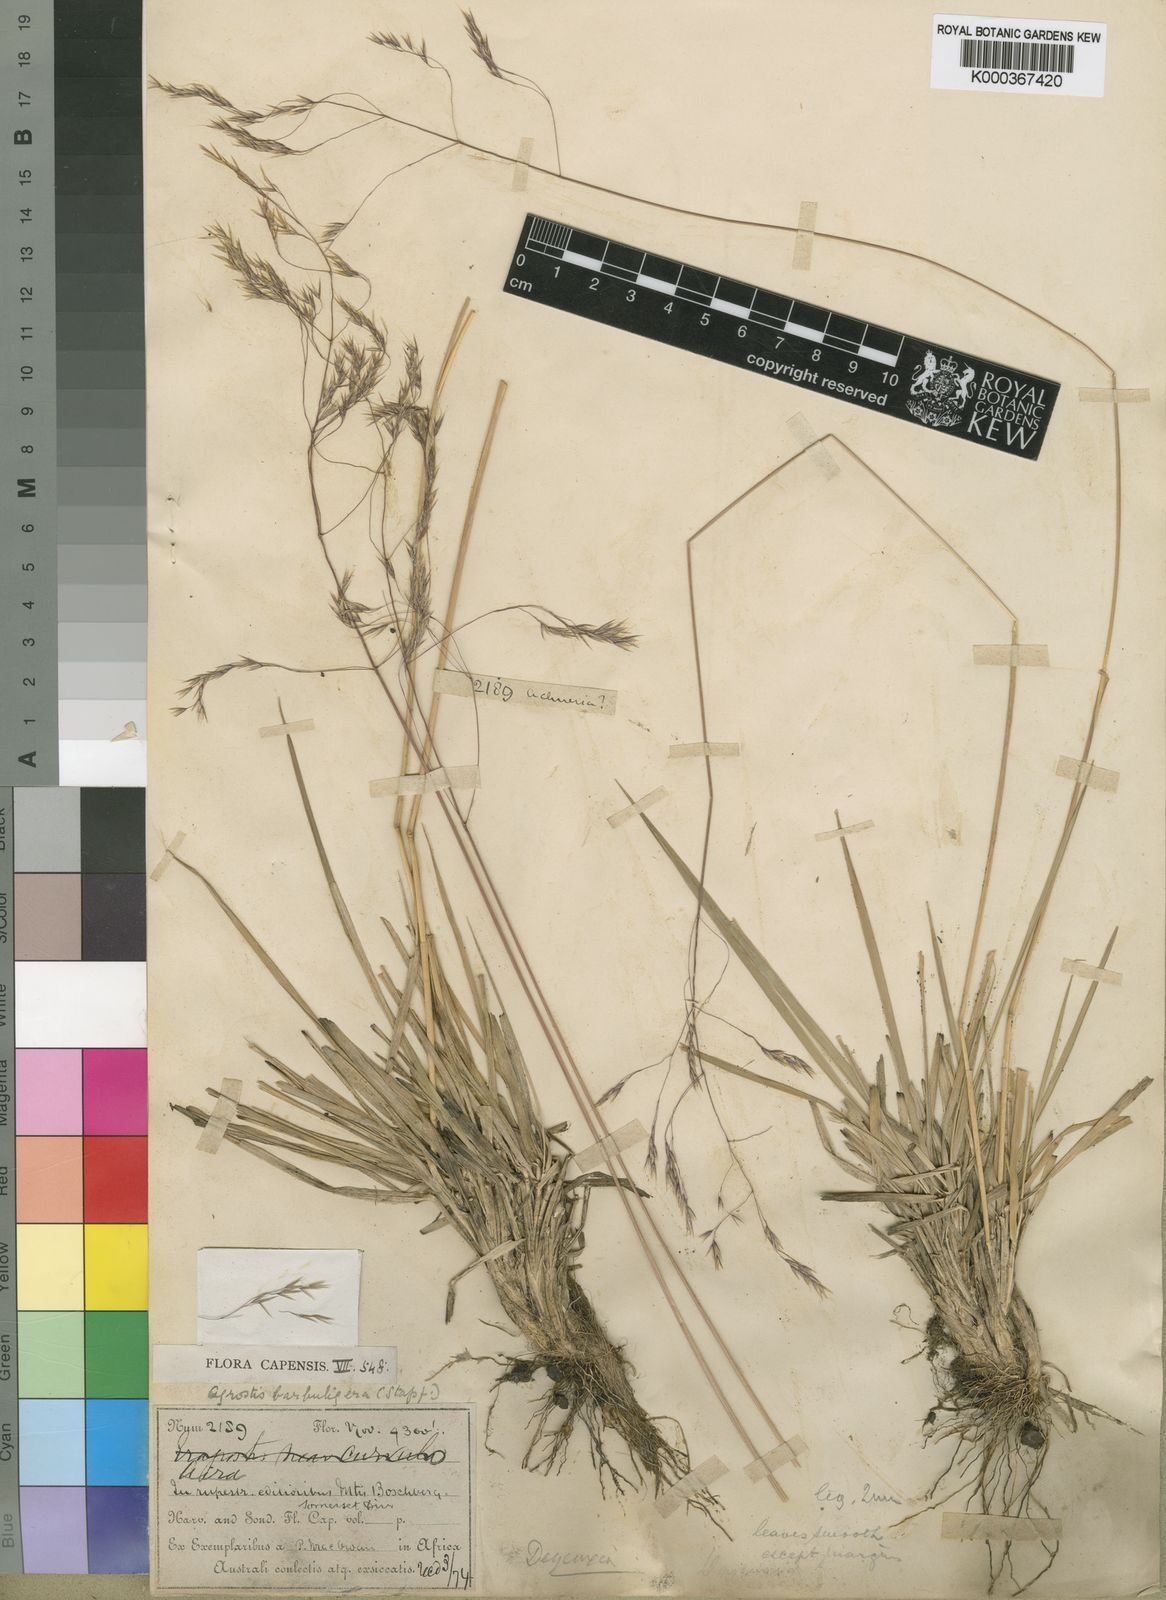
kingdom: Plantae
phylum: Tracheophyta
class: Liliopsida
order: Poales
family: Poaceae
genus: Lachnagrostis
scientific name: Lachnagrostis barbuligera
